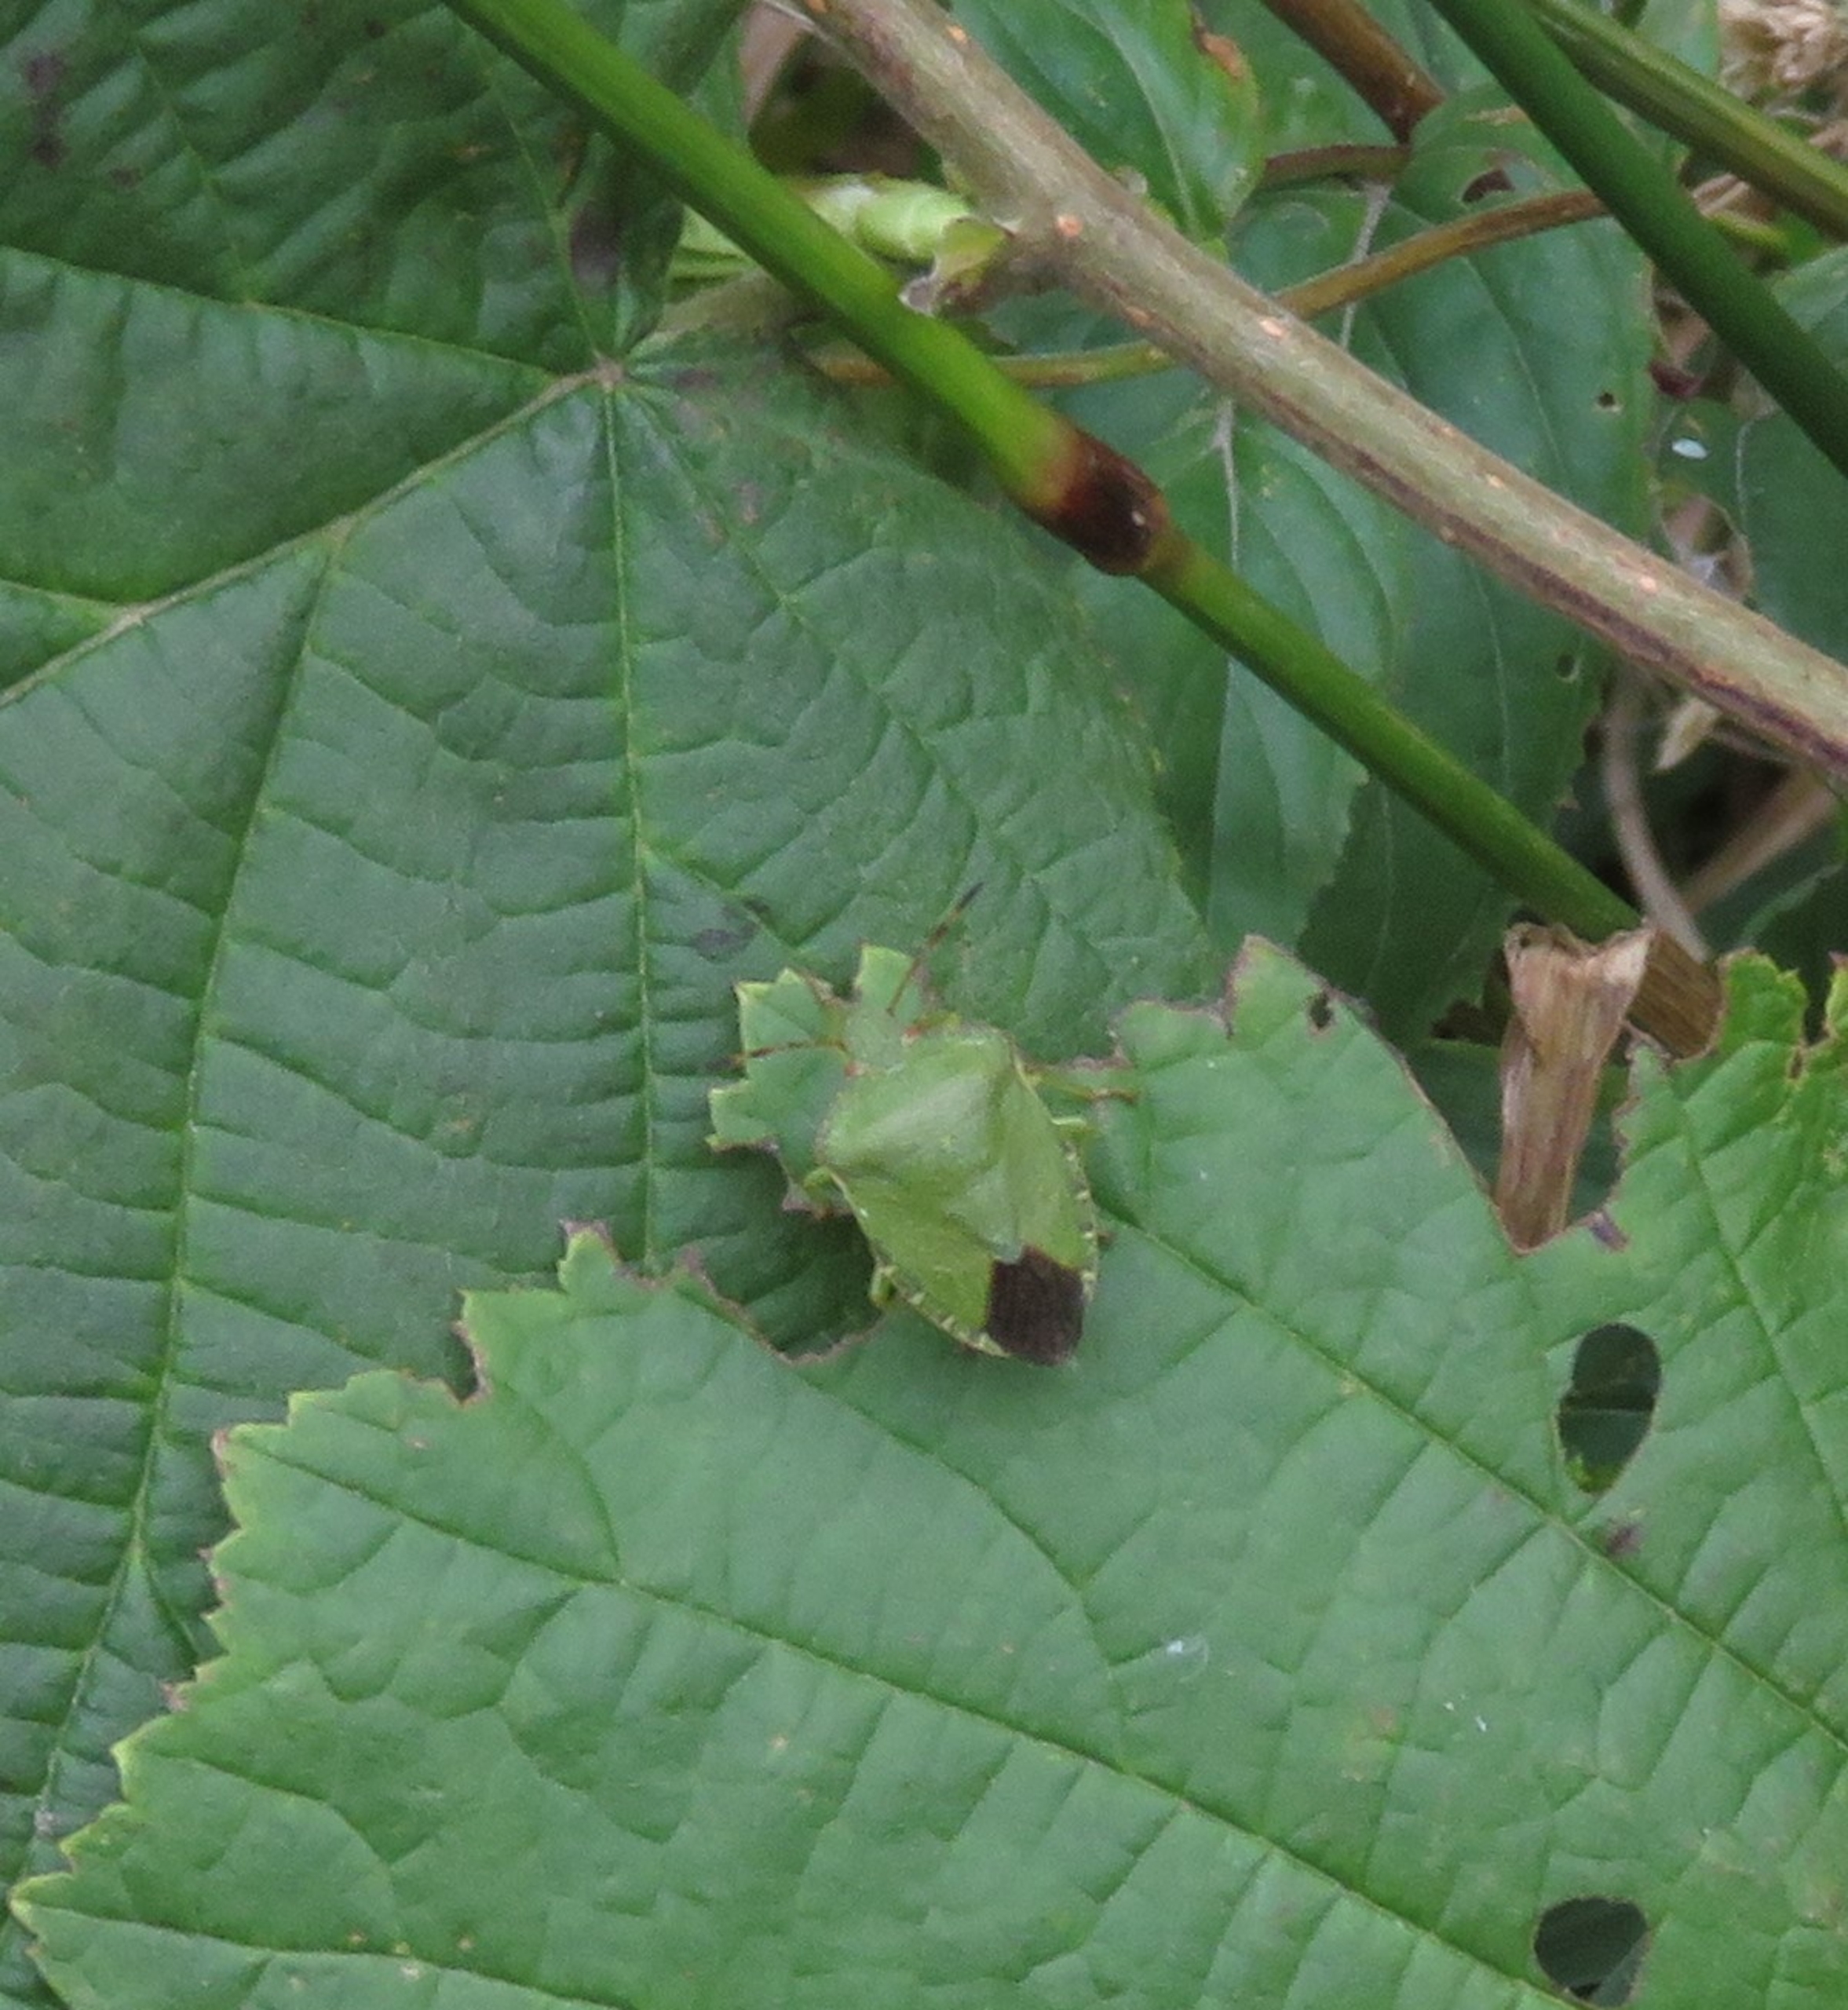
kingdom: Animalia
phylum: Arthropoda
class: Insecta
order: Hemiptera
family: Pentatomidae
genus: Palomena
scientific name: Palomena prasina
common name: Grøn bredtæge
